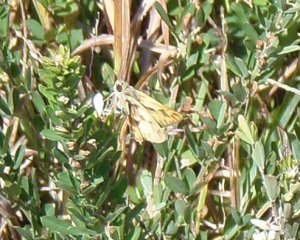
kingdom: Animalia
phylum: Arthropoda
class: Insecta
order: Lepidoptera
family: Hesperiidae
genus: Hylephila
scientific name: Hylephila phyleus
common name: Fiery Skipper
